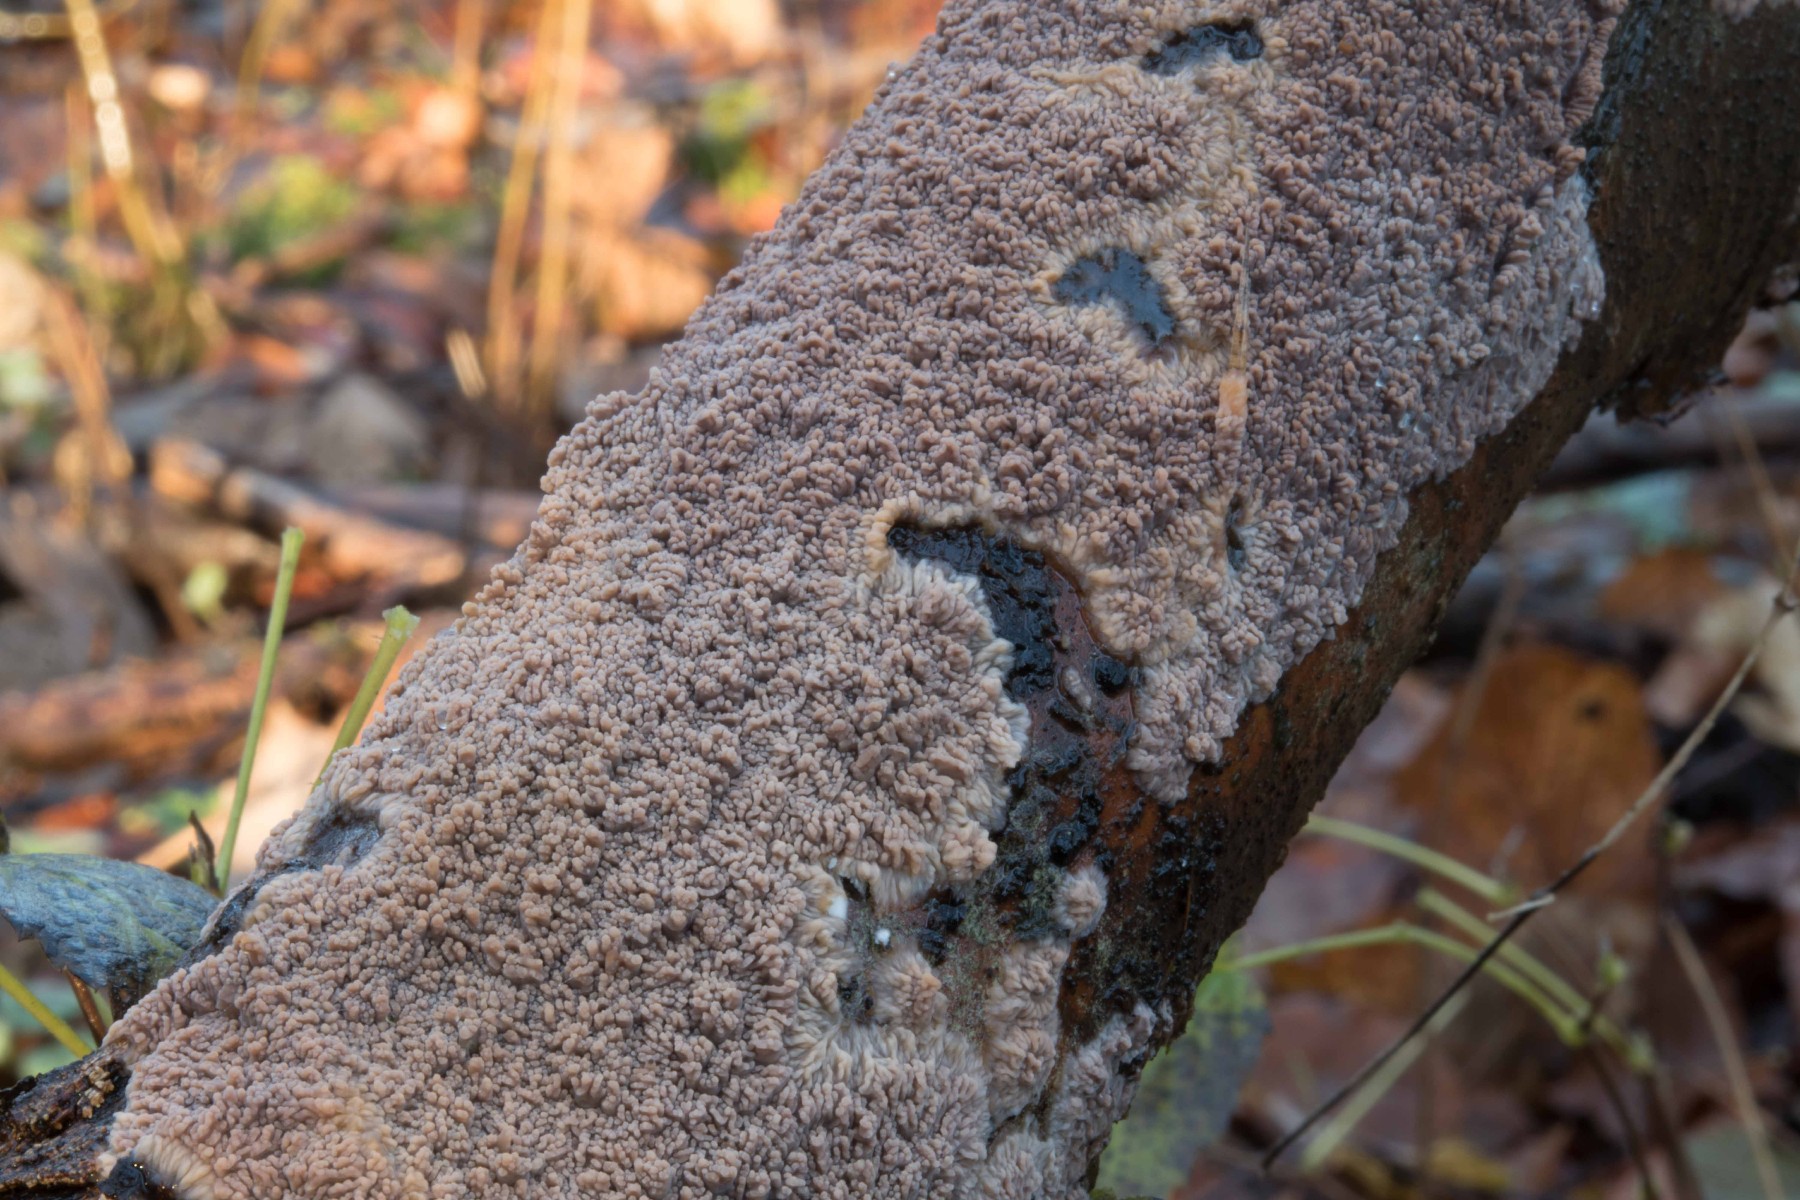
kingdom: Fungi
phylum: Basidiomycota
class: Agaricomycetes
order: Polyporales
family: Meruliaceae
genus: Phlebia
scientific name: Phlebia radiata
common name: stråle-åresvamp
